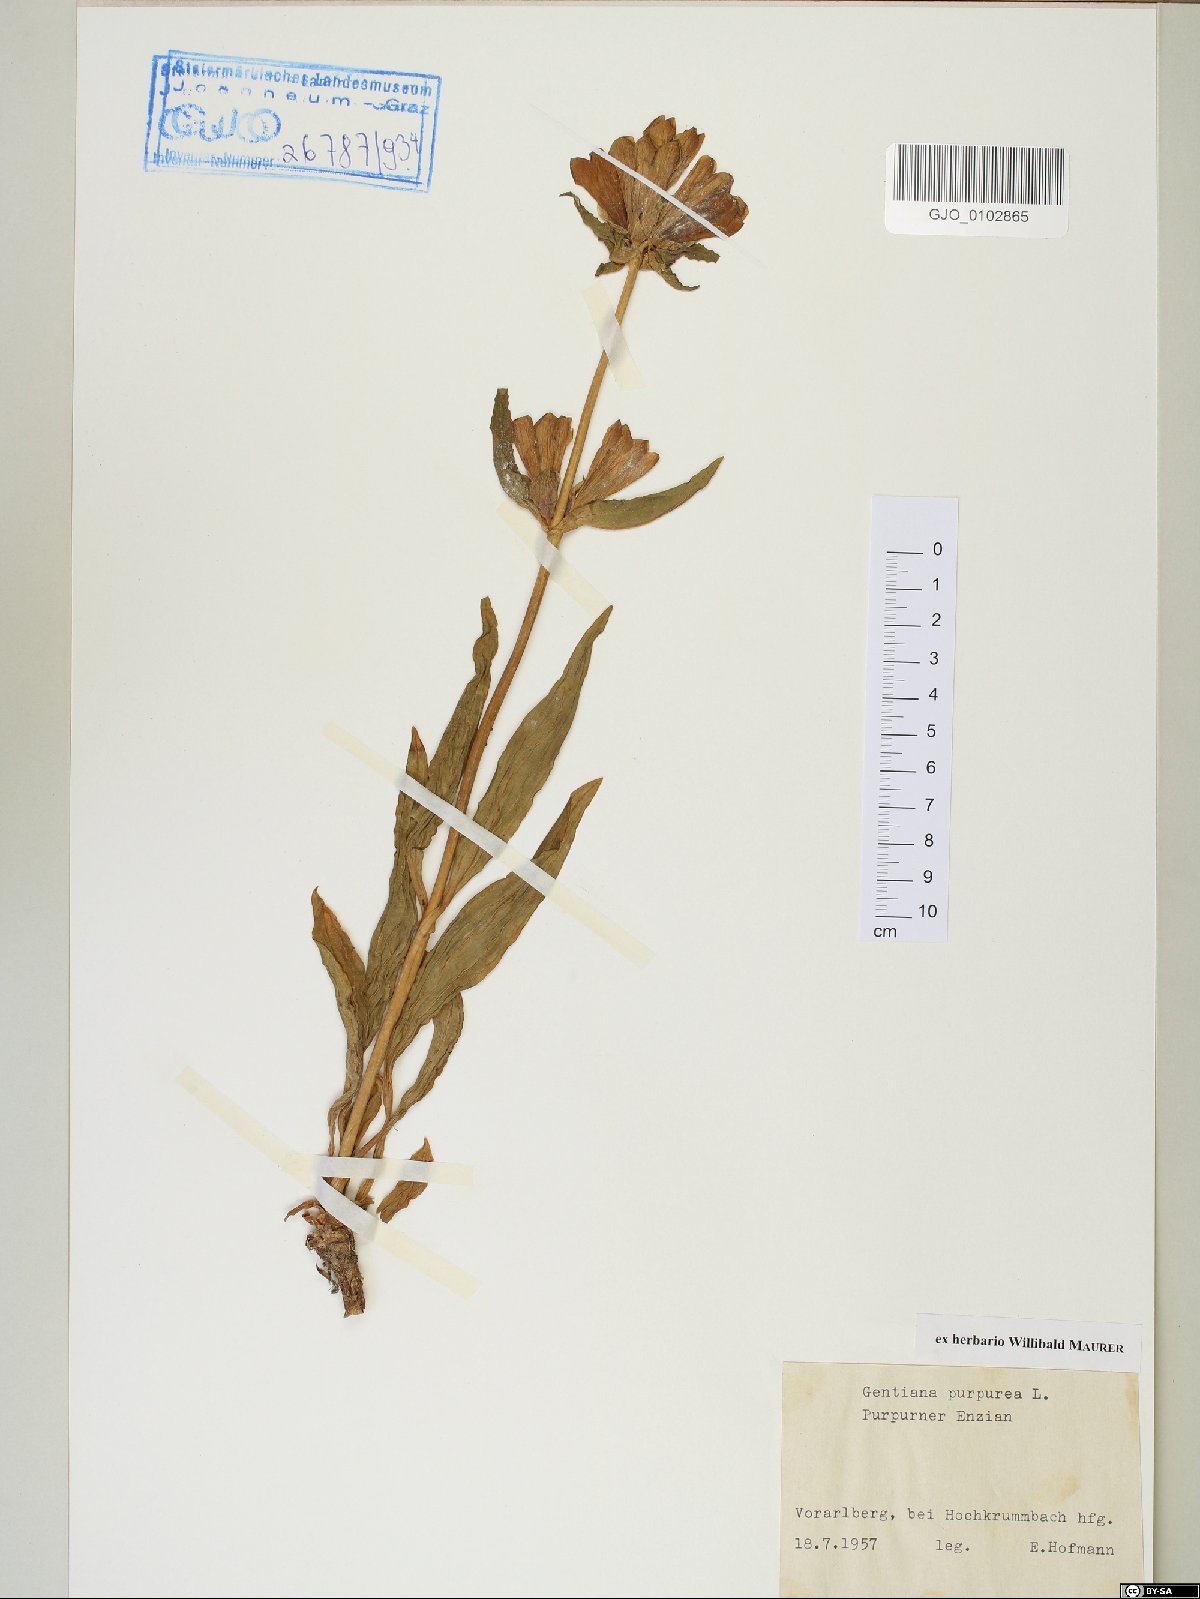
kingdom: Plantae
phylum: Tracheophyta
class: Magnoliopsida
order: Gentianales
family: Gentianaceae
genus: Gentiana
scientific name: Gentiana purpurea
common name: Purple gentian
